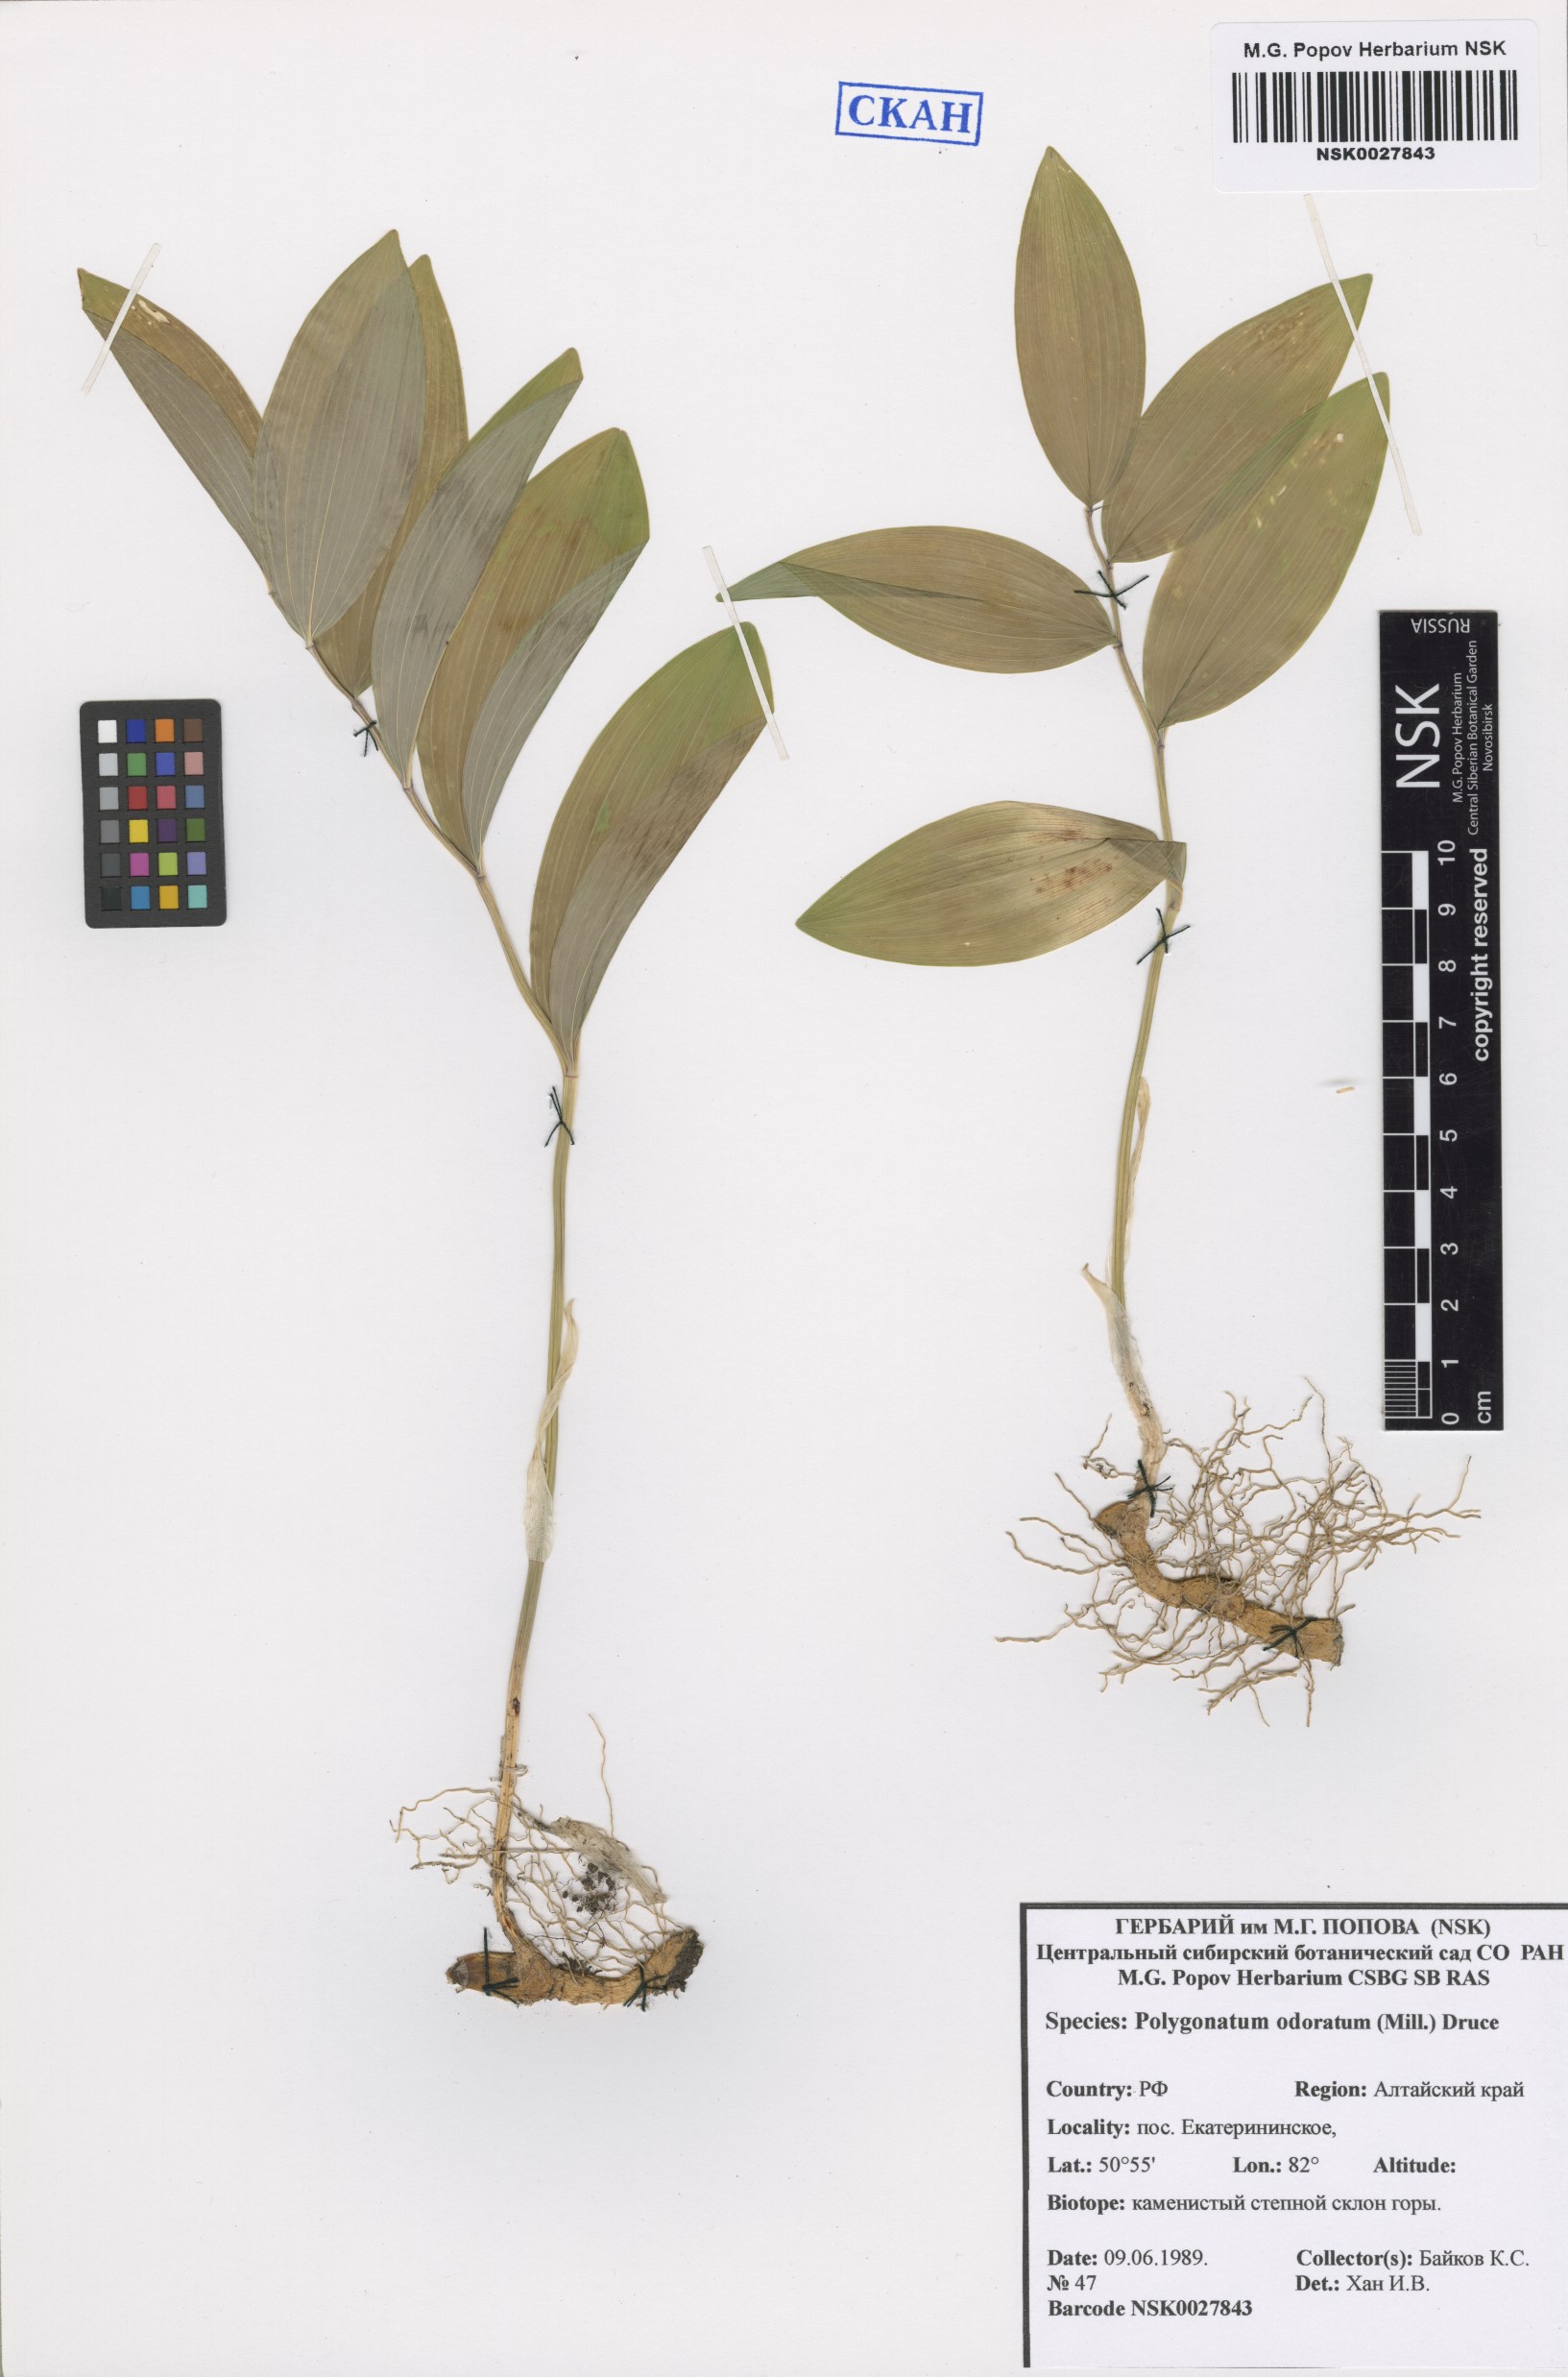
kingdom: Plantae
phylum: Tracheophyta
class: Liliopsida
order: Asparagales
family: Asparagaceae
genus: Polygonatum
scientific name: Polygonatum odoratum
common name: Angular solomon's-seal
